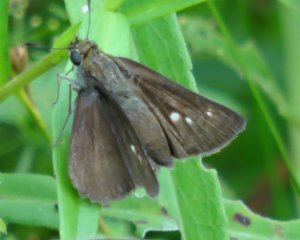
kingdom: Animalia
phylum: Arthropoda
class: Insecta
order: Lepidoptera
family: Hesperiidae
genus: Polites
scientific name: Polites egeremet
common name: Northern Broken-Dash
